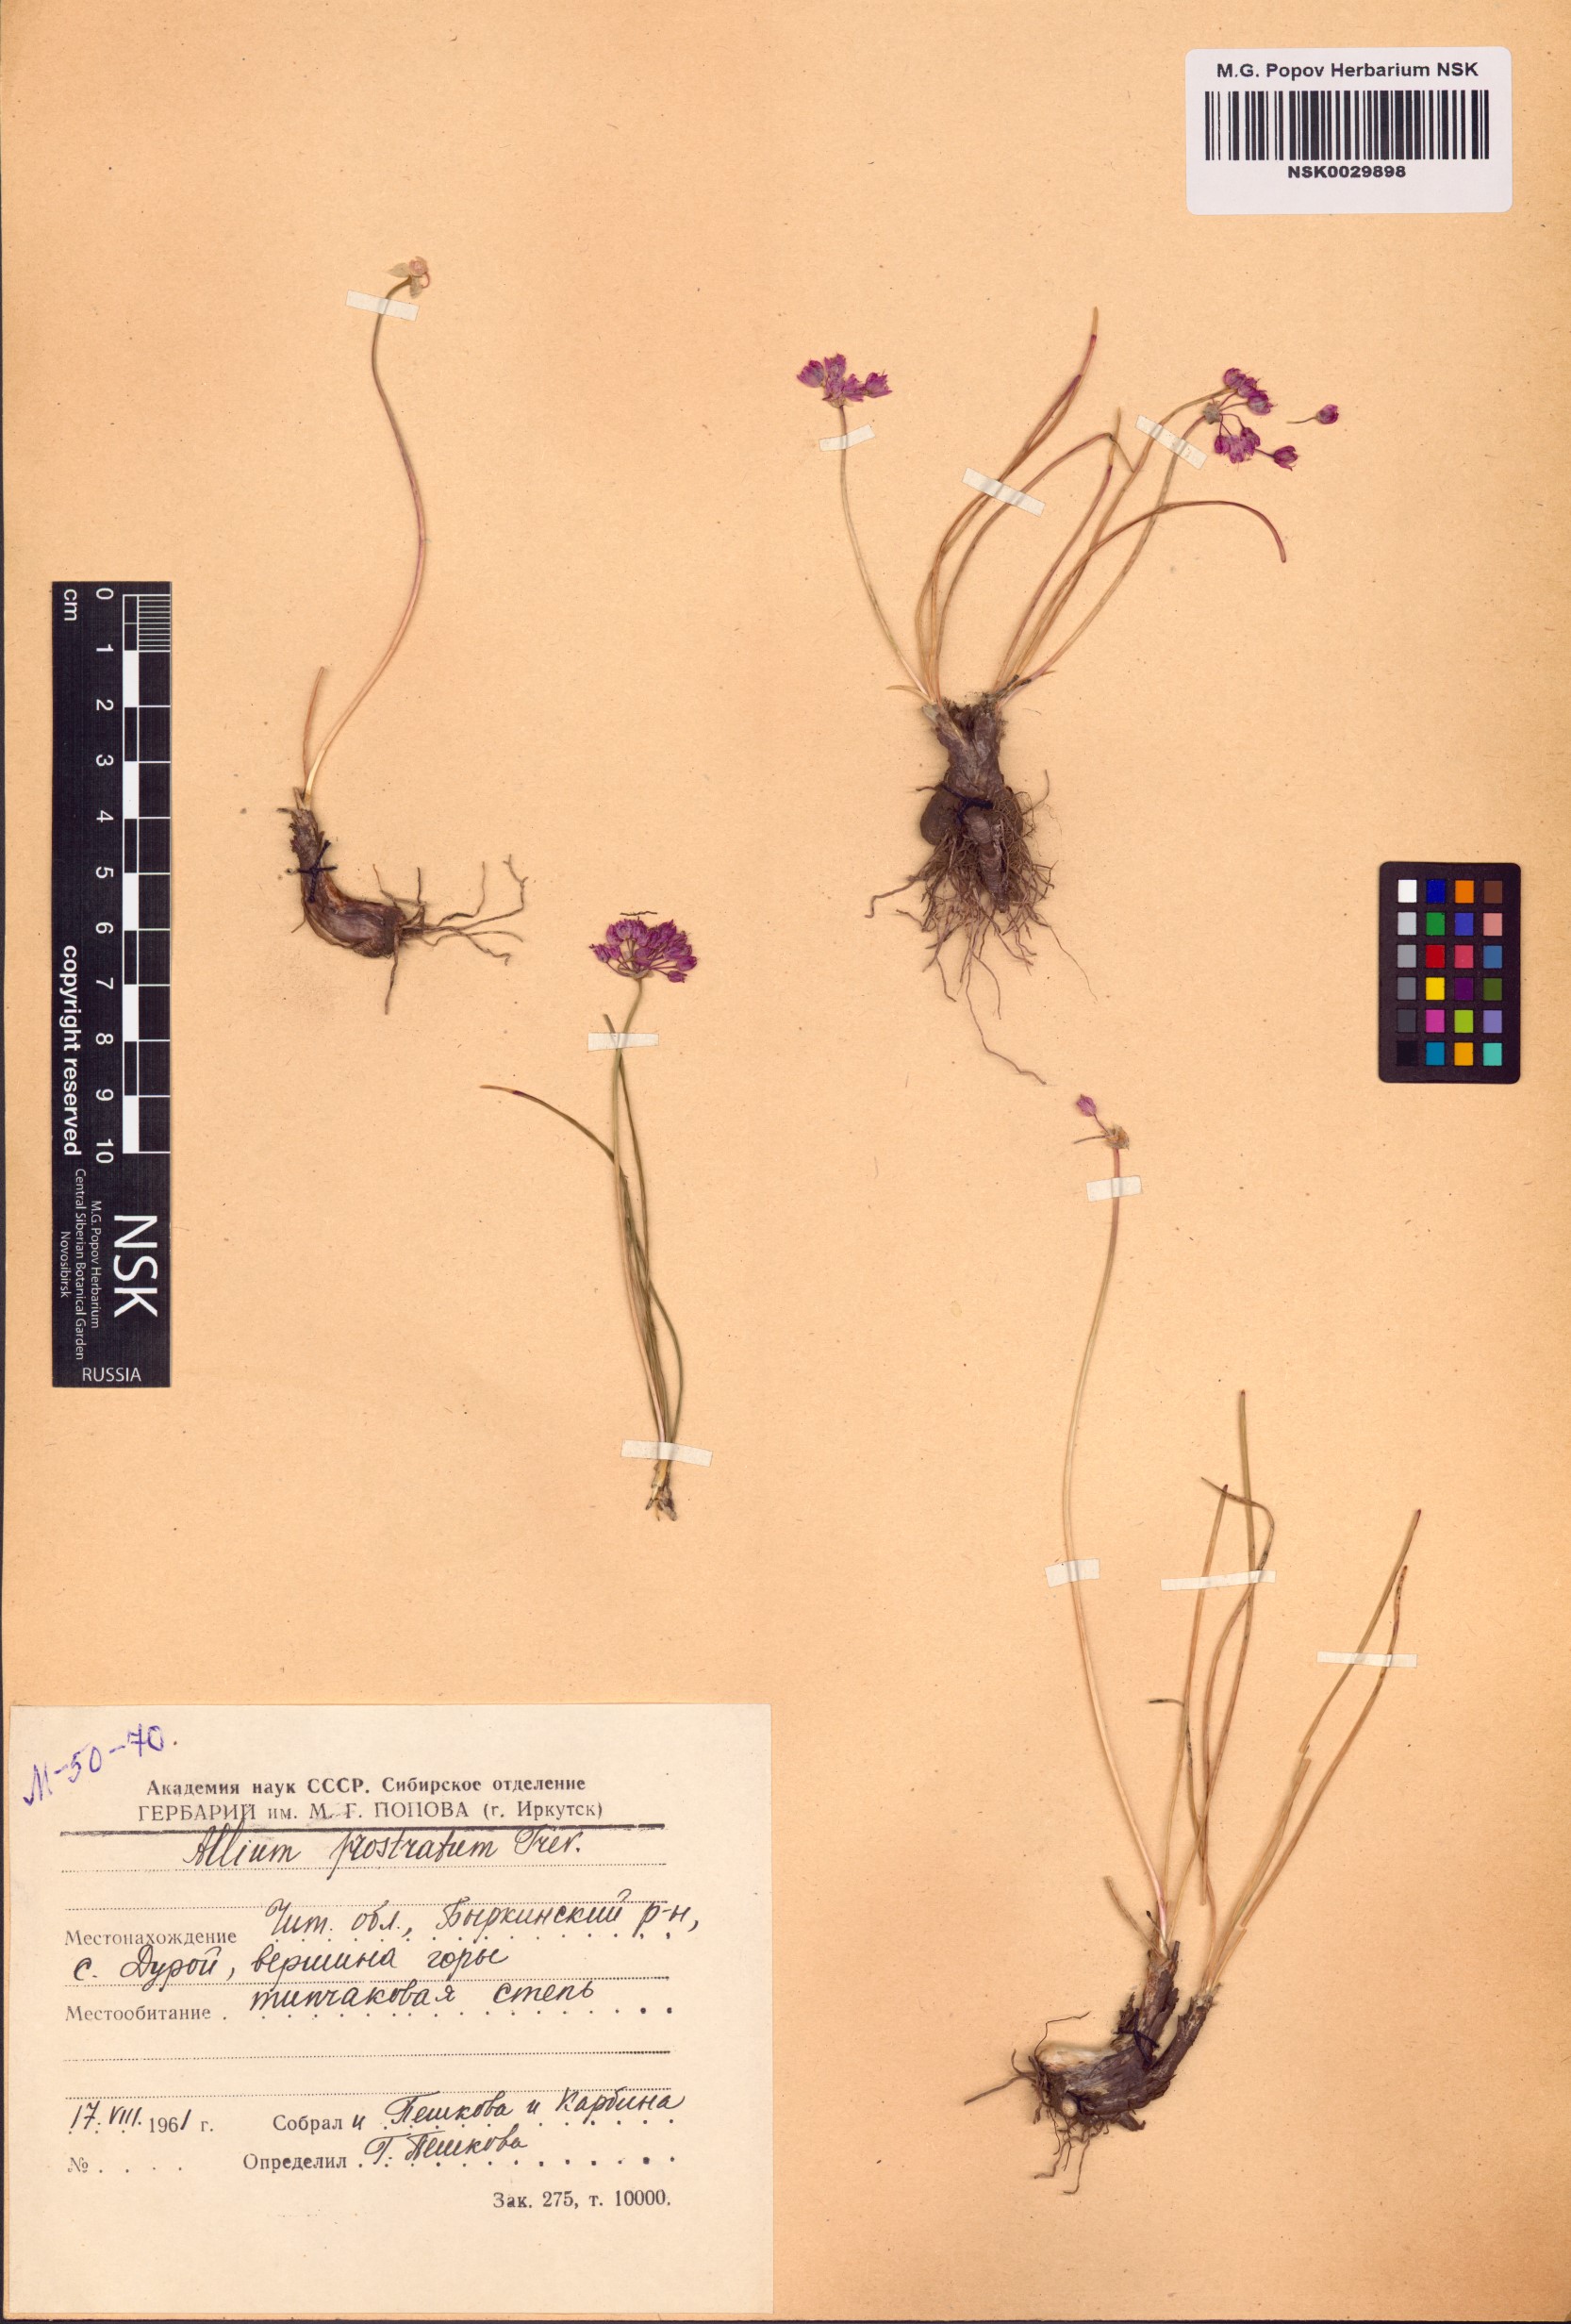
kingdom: Plantae
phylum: Tracheophyta
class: Liliopsida
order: Asparagales
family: Amaryllidaceae
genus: Allium
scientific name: Allium prostratum
